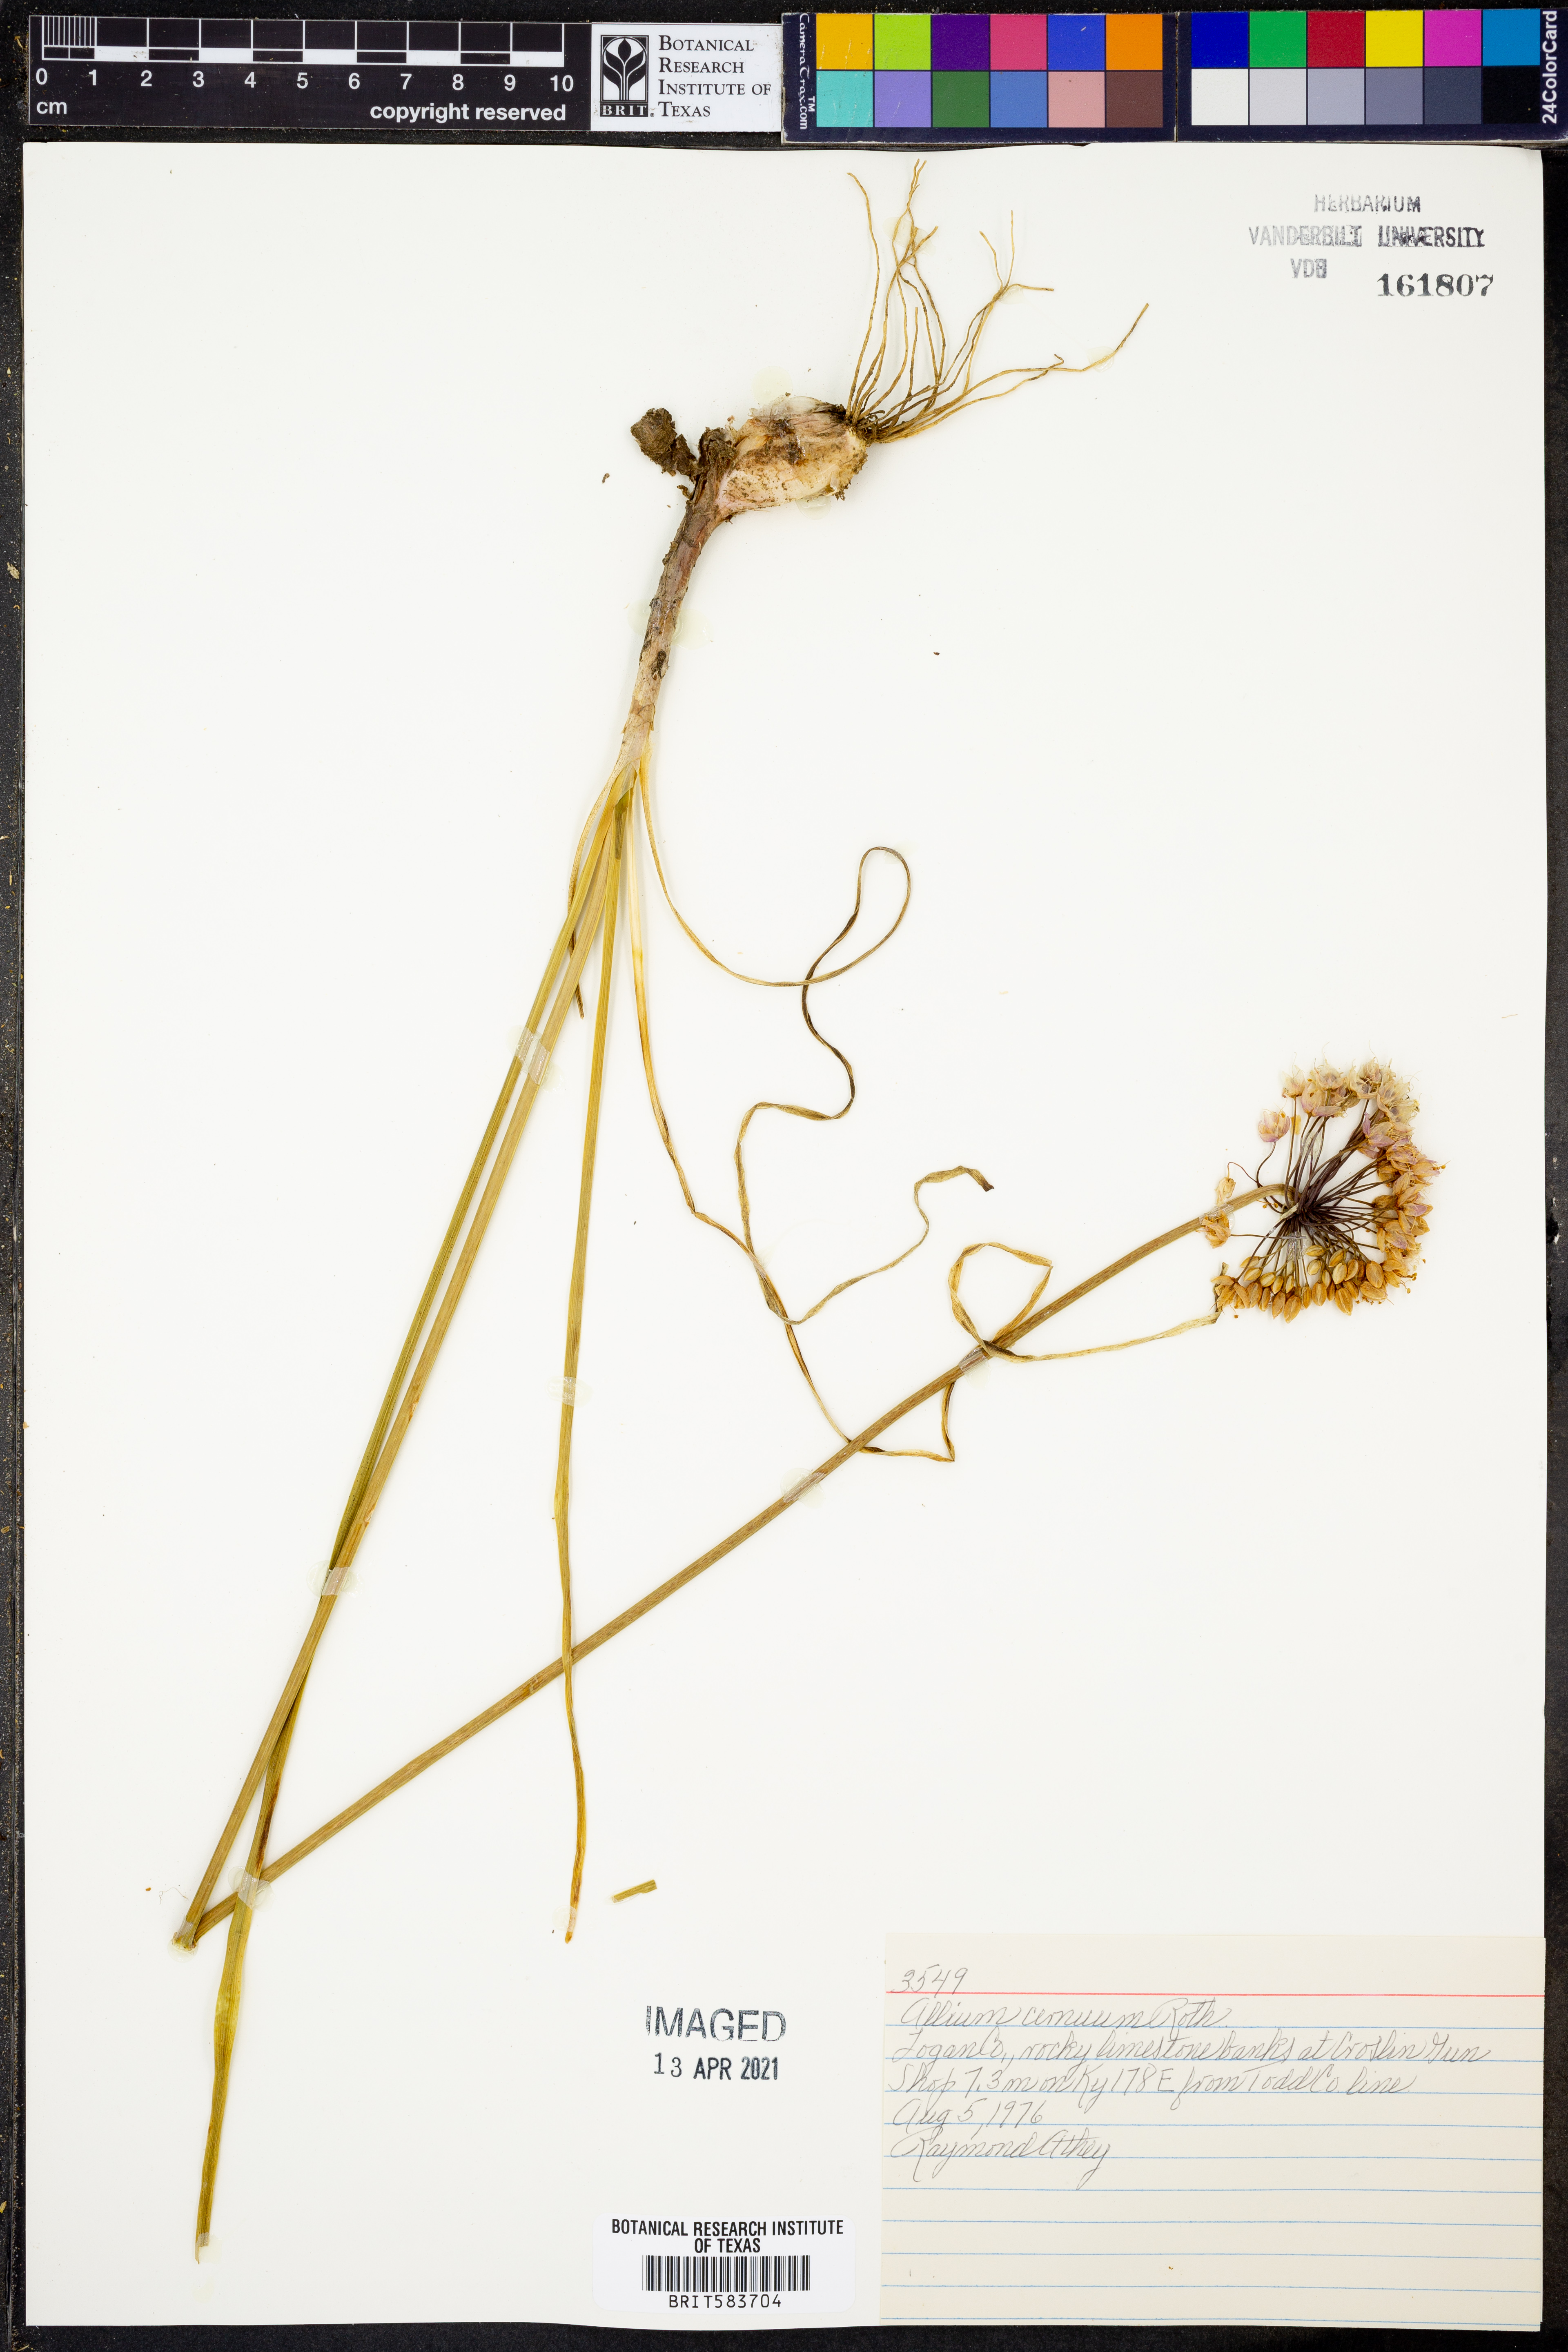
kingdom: Plantae
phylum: Tracheophyta
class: Liliopsida
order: Asparagales
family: Amaryllidaceae
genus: Allium
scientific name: Allium cernuum
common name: Nodding onion
